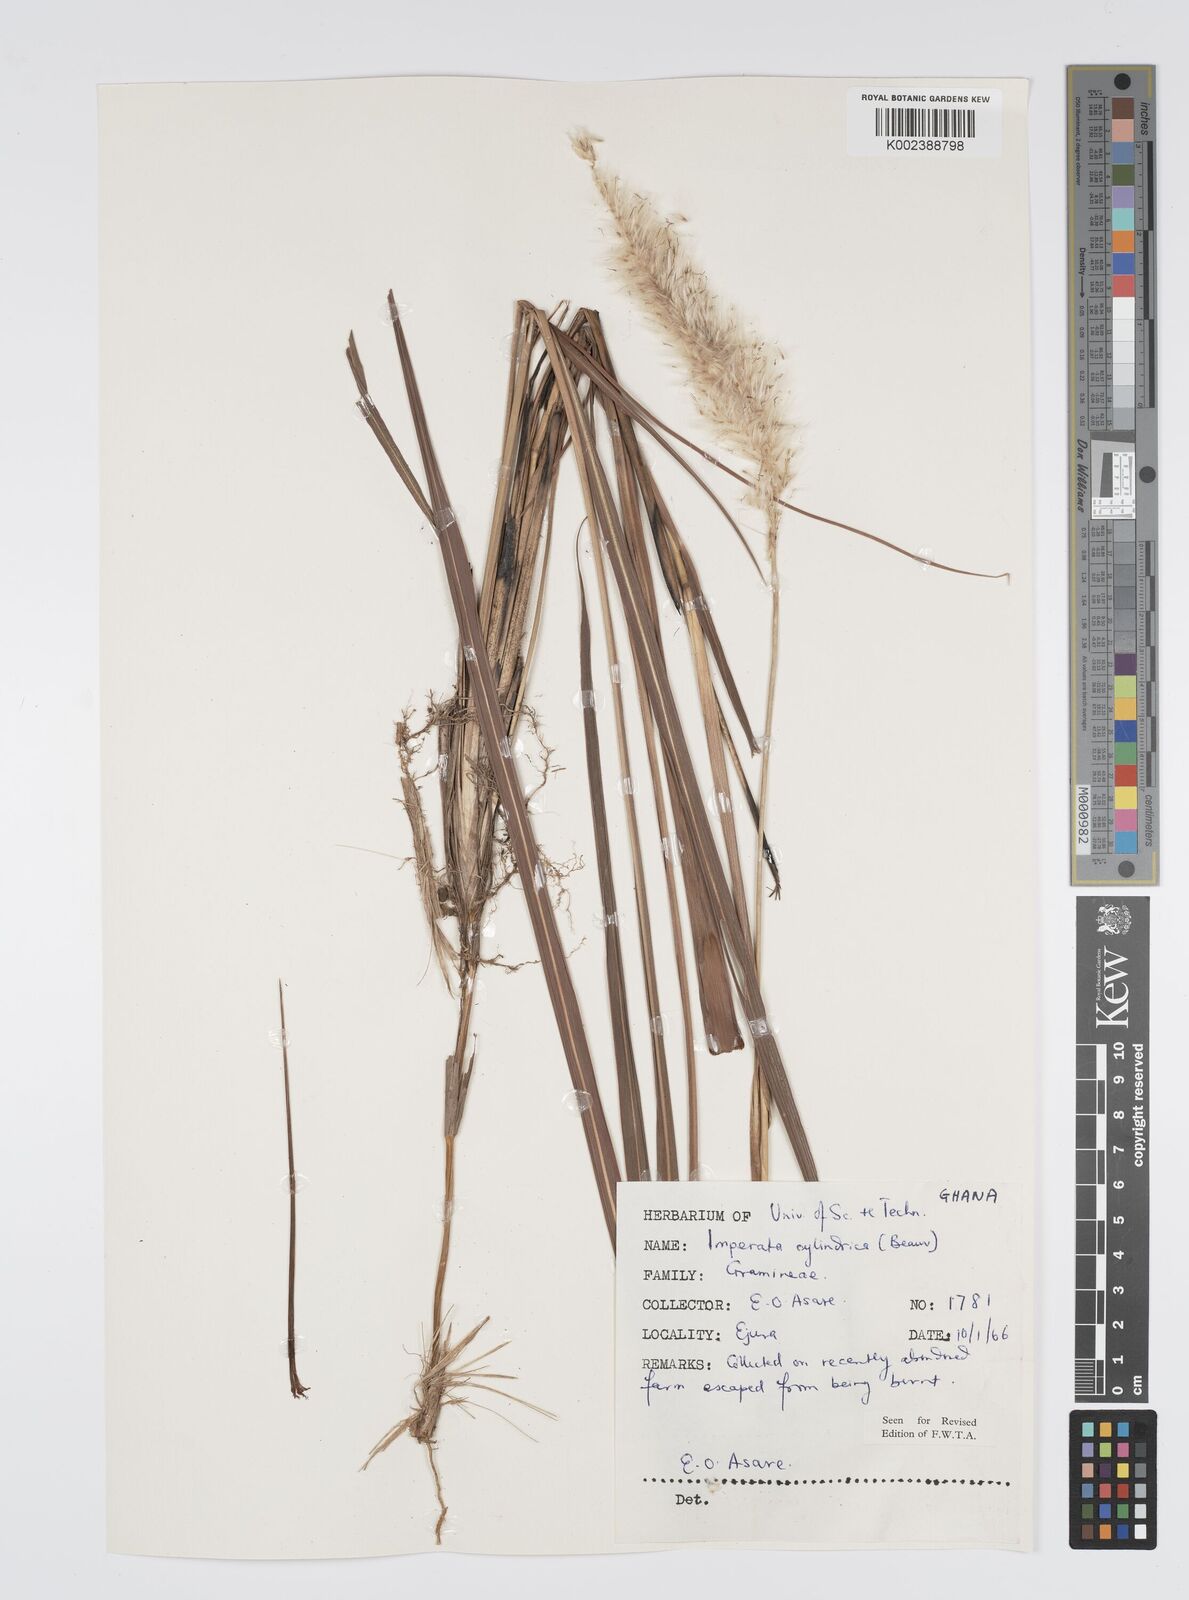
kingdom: Plantae
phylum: Tracheophyta
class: Liliopsida
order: Poales
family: Poaceae
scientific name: Poaceae
